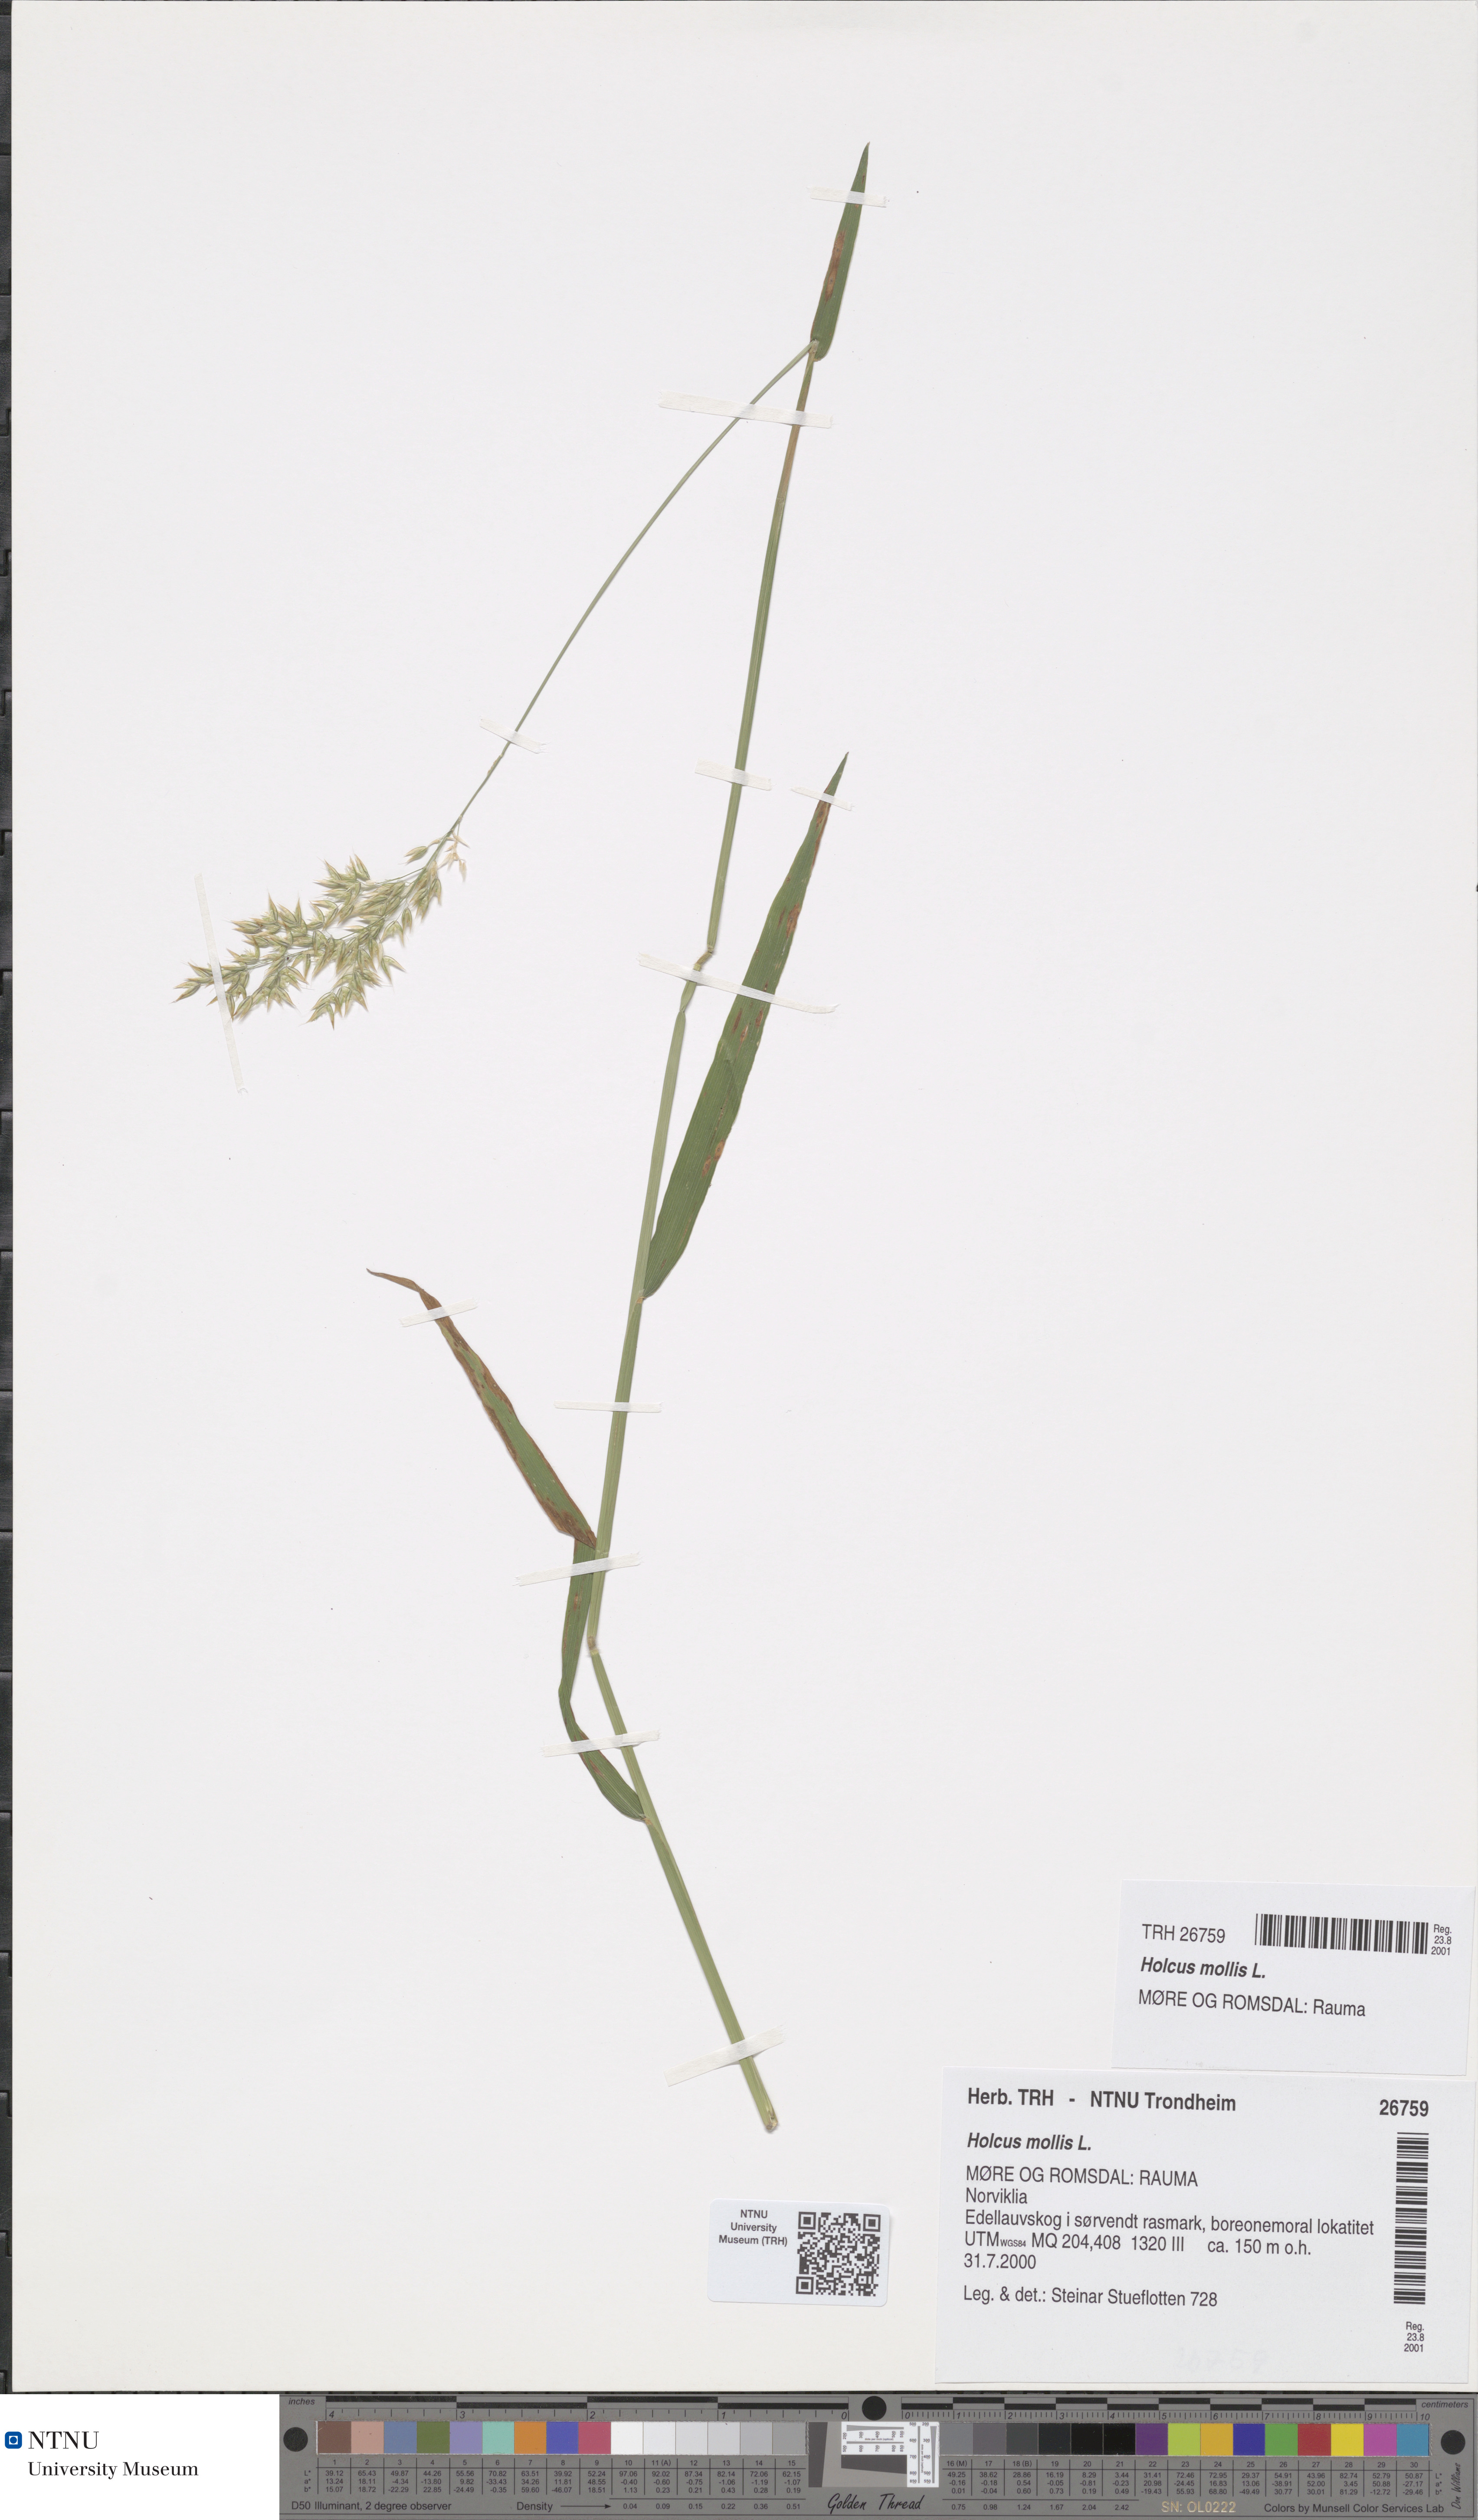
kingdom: Plantae
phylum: Tracheophyta
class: Liliopsida
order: Poales
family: Poaceae
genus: Holcus
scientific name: Holcus mollis
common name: Creeping velvetgrass
